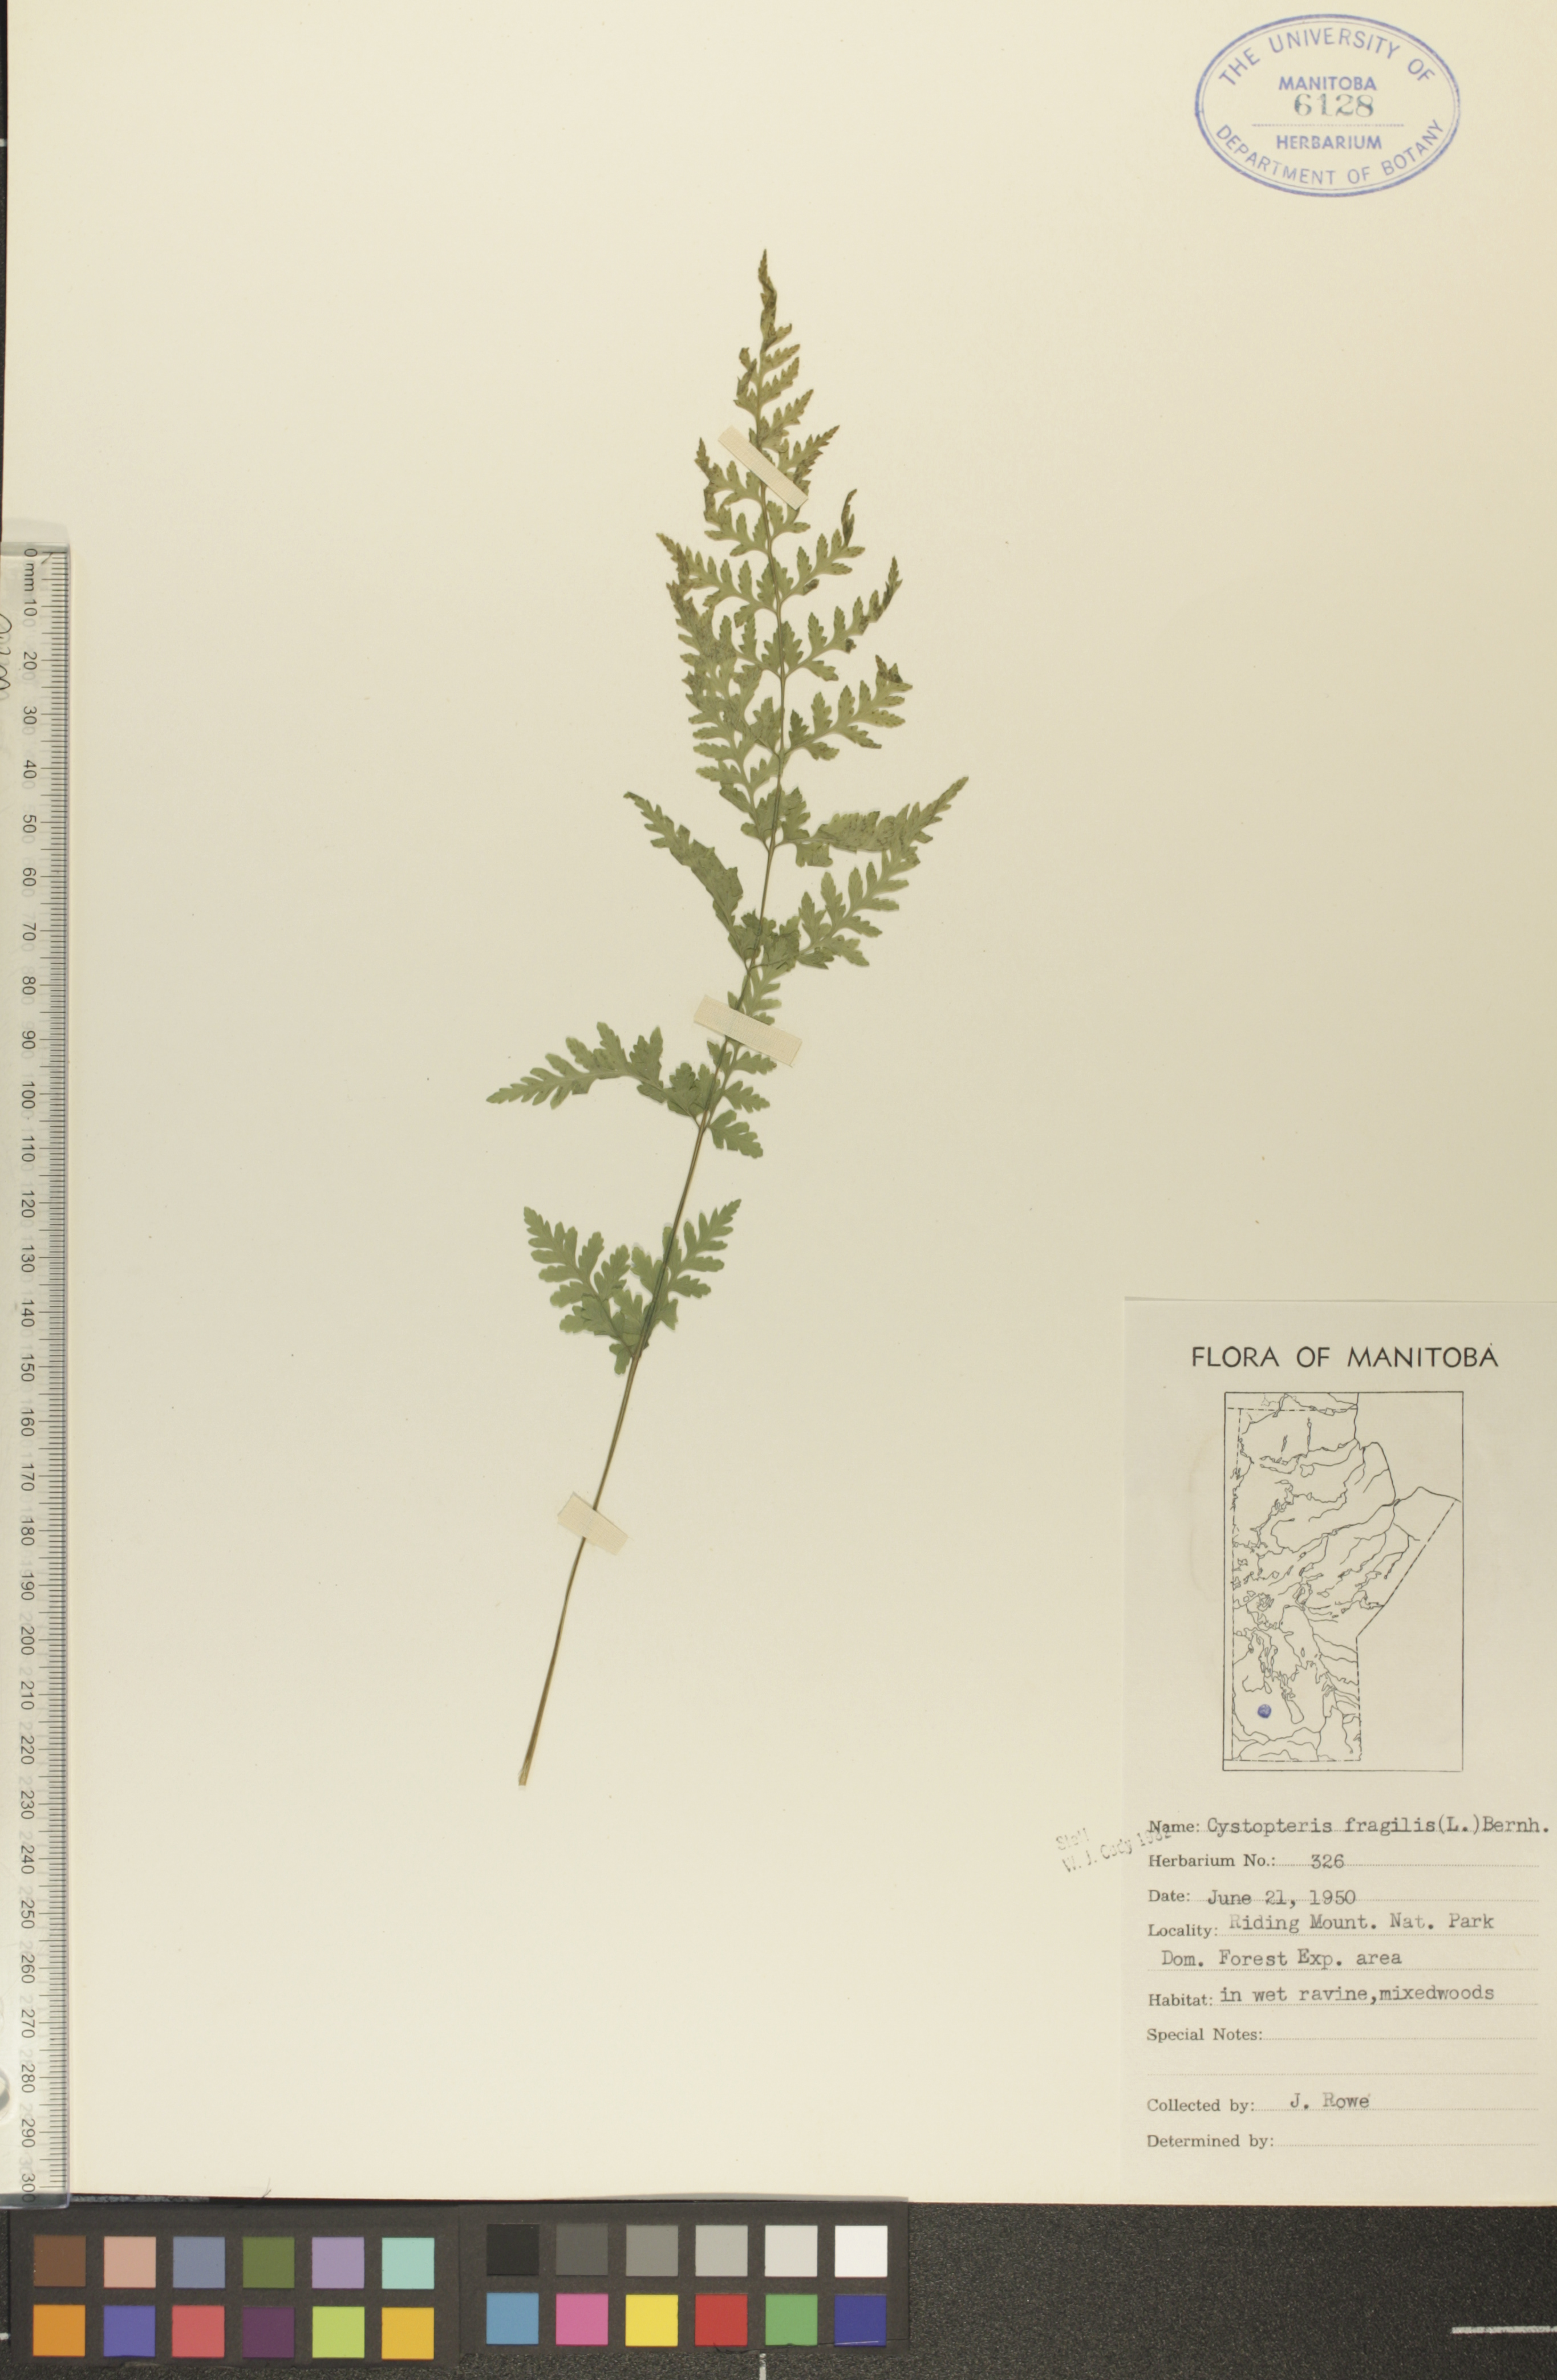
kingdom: Plantae
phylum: Tracheophyta
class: Polypodiopsida
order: Polypodiales
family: Cystopteridaceae
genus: Cystopteris
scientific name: Cystopteris tenuis
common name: Mackay's brittle fern
